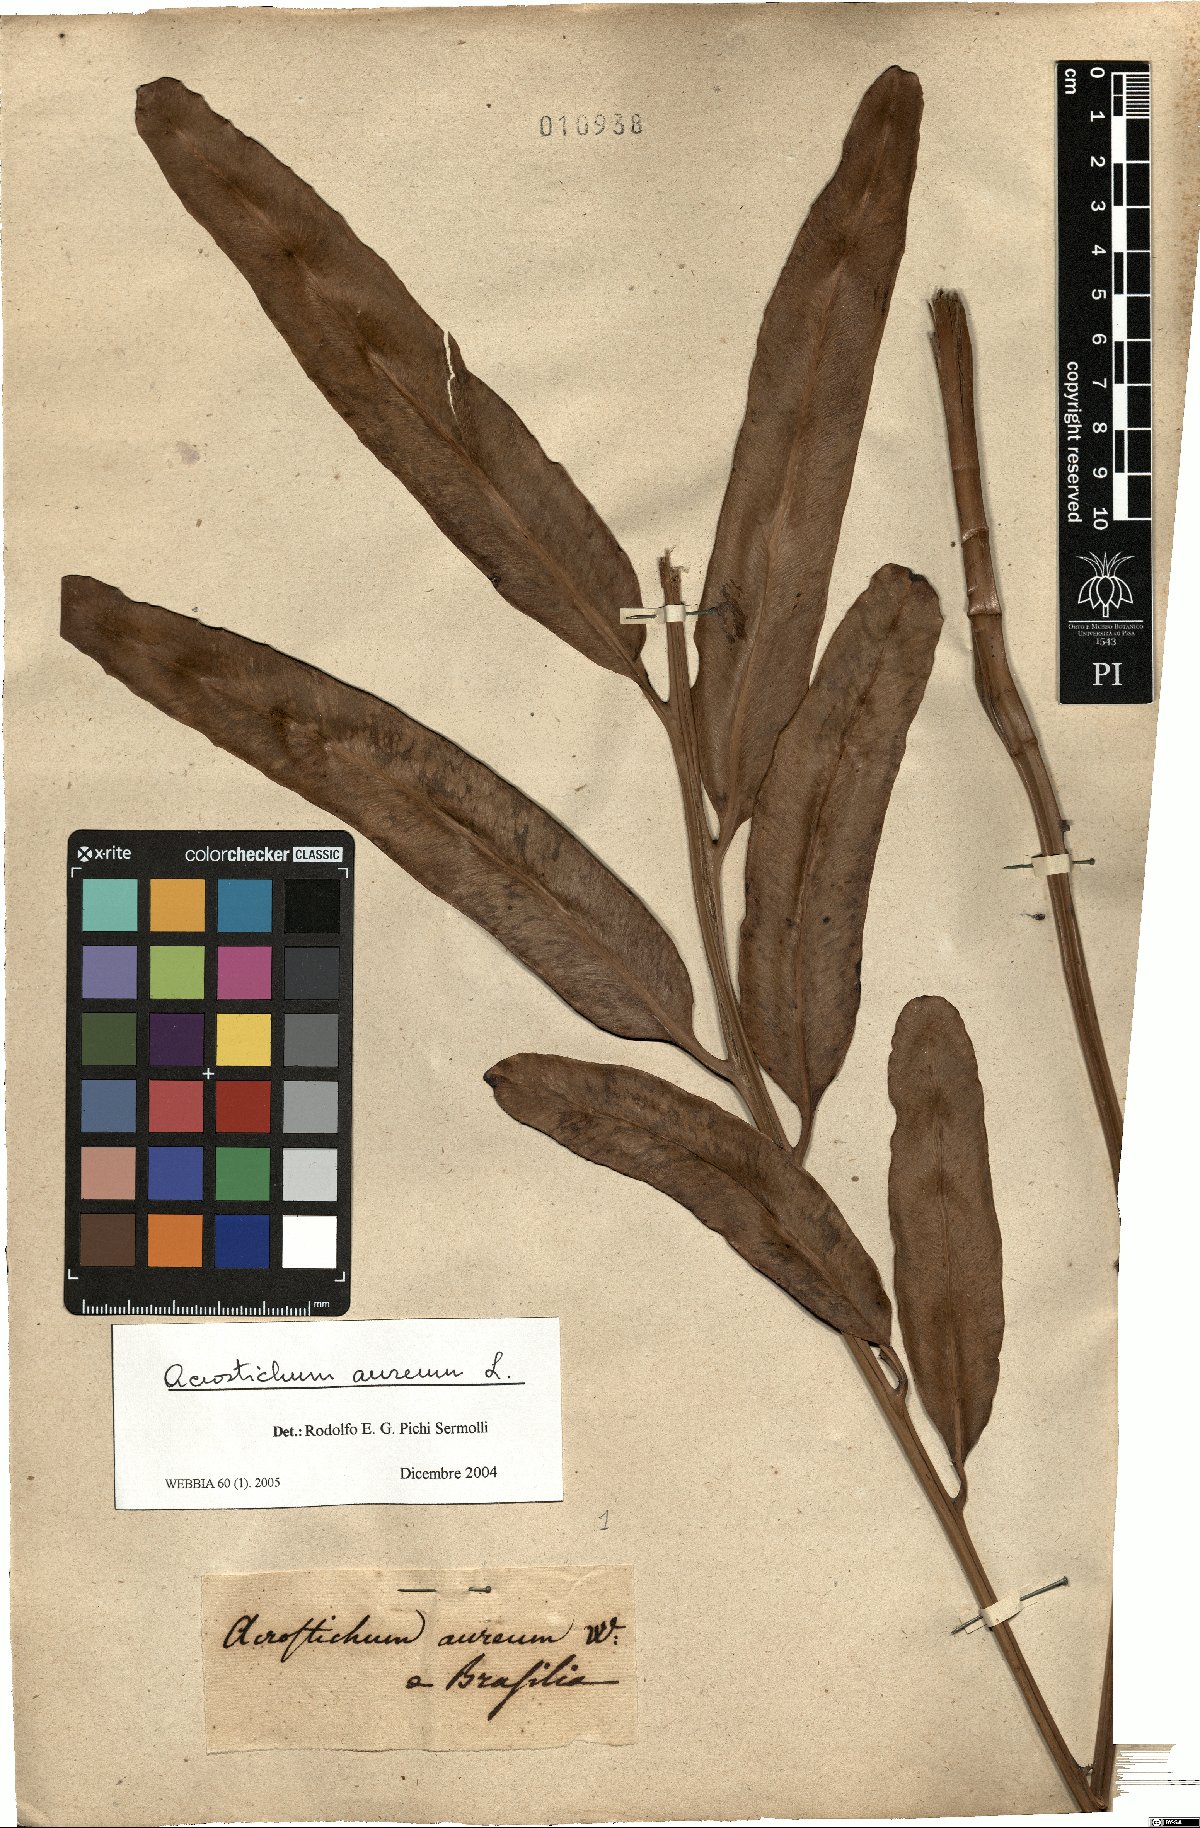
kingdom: Plantae
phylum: Tracheophyta
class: Polypodiopsida
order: Polypodiales
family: Pteridaceae
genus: Acrostichum
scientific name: Acrostichum aureum
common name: Leather fern
